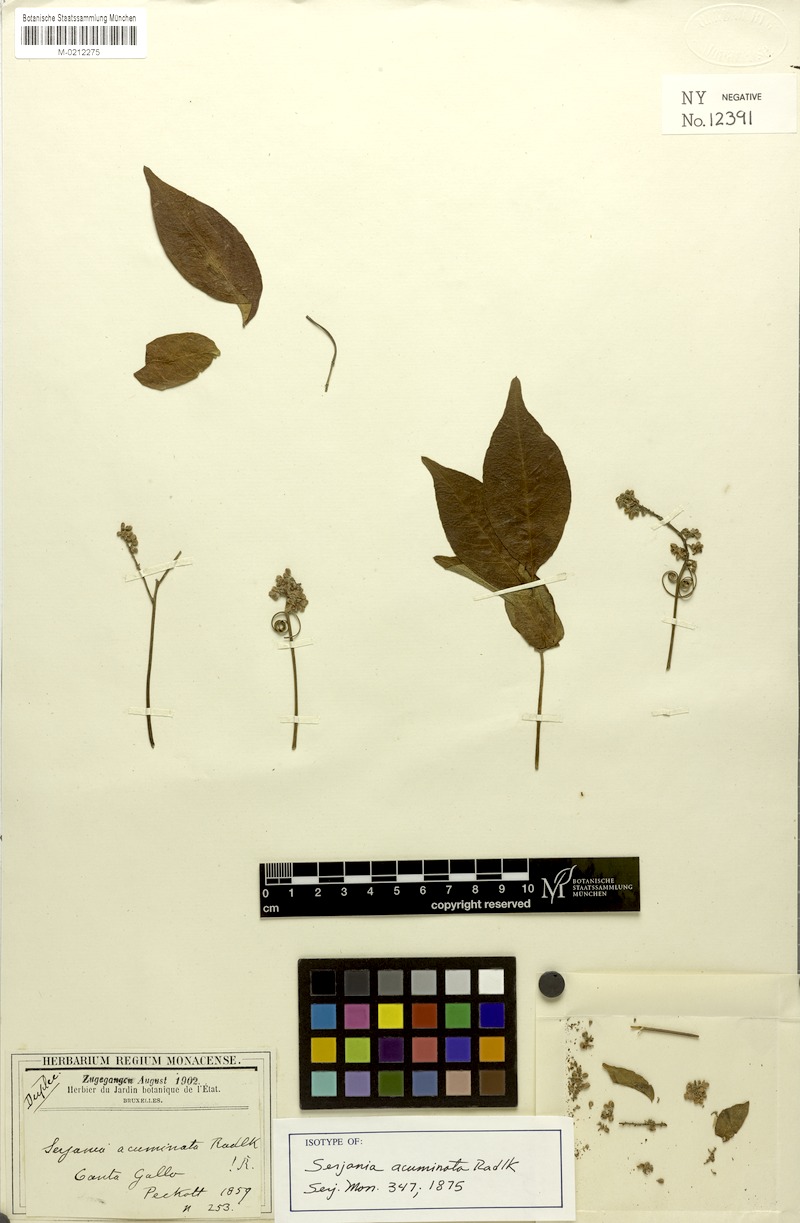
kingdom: Plantae
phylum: Tracheophyta
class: Magnoliopsida
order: Sapindales
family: Sapindaceae
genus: Serjania
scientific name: Serjania acuminata
